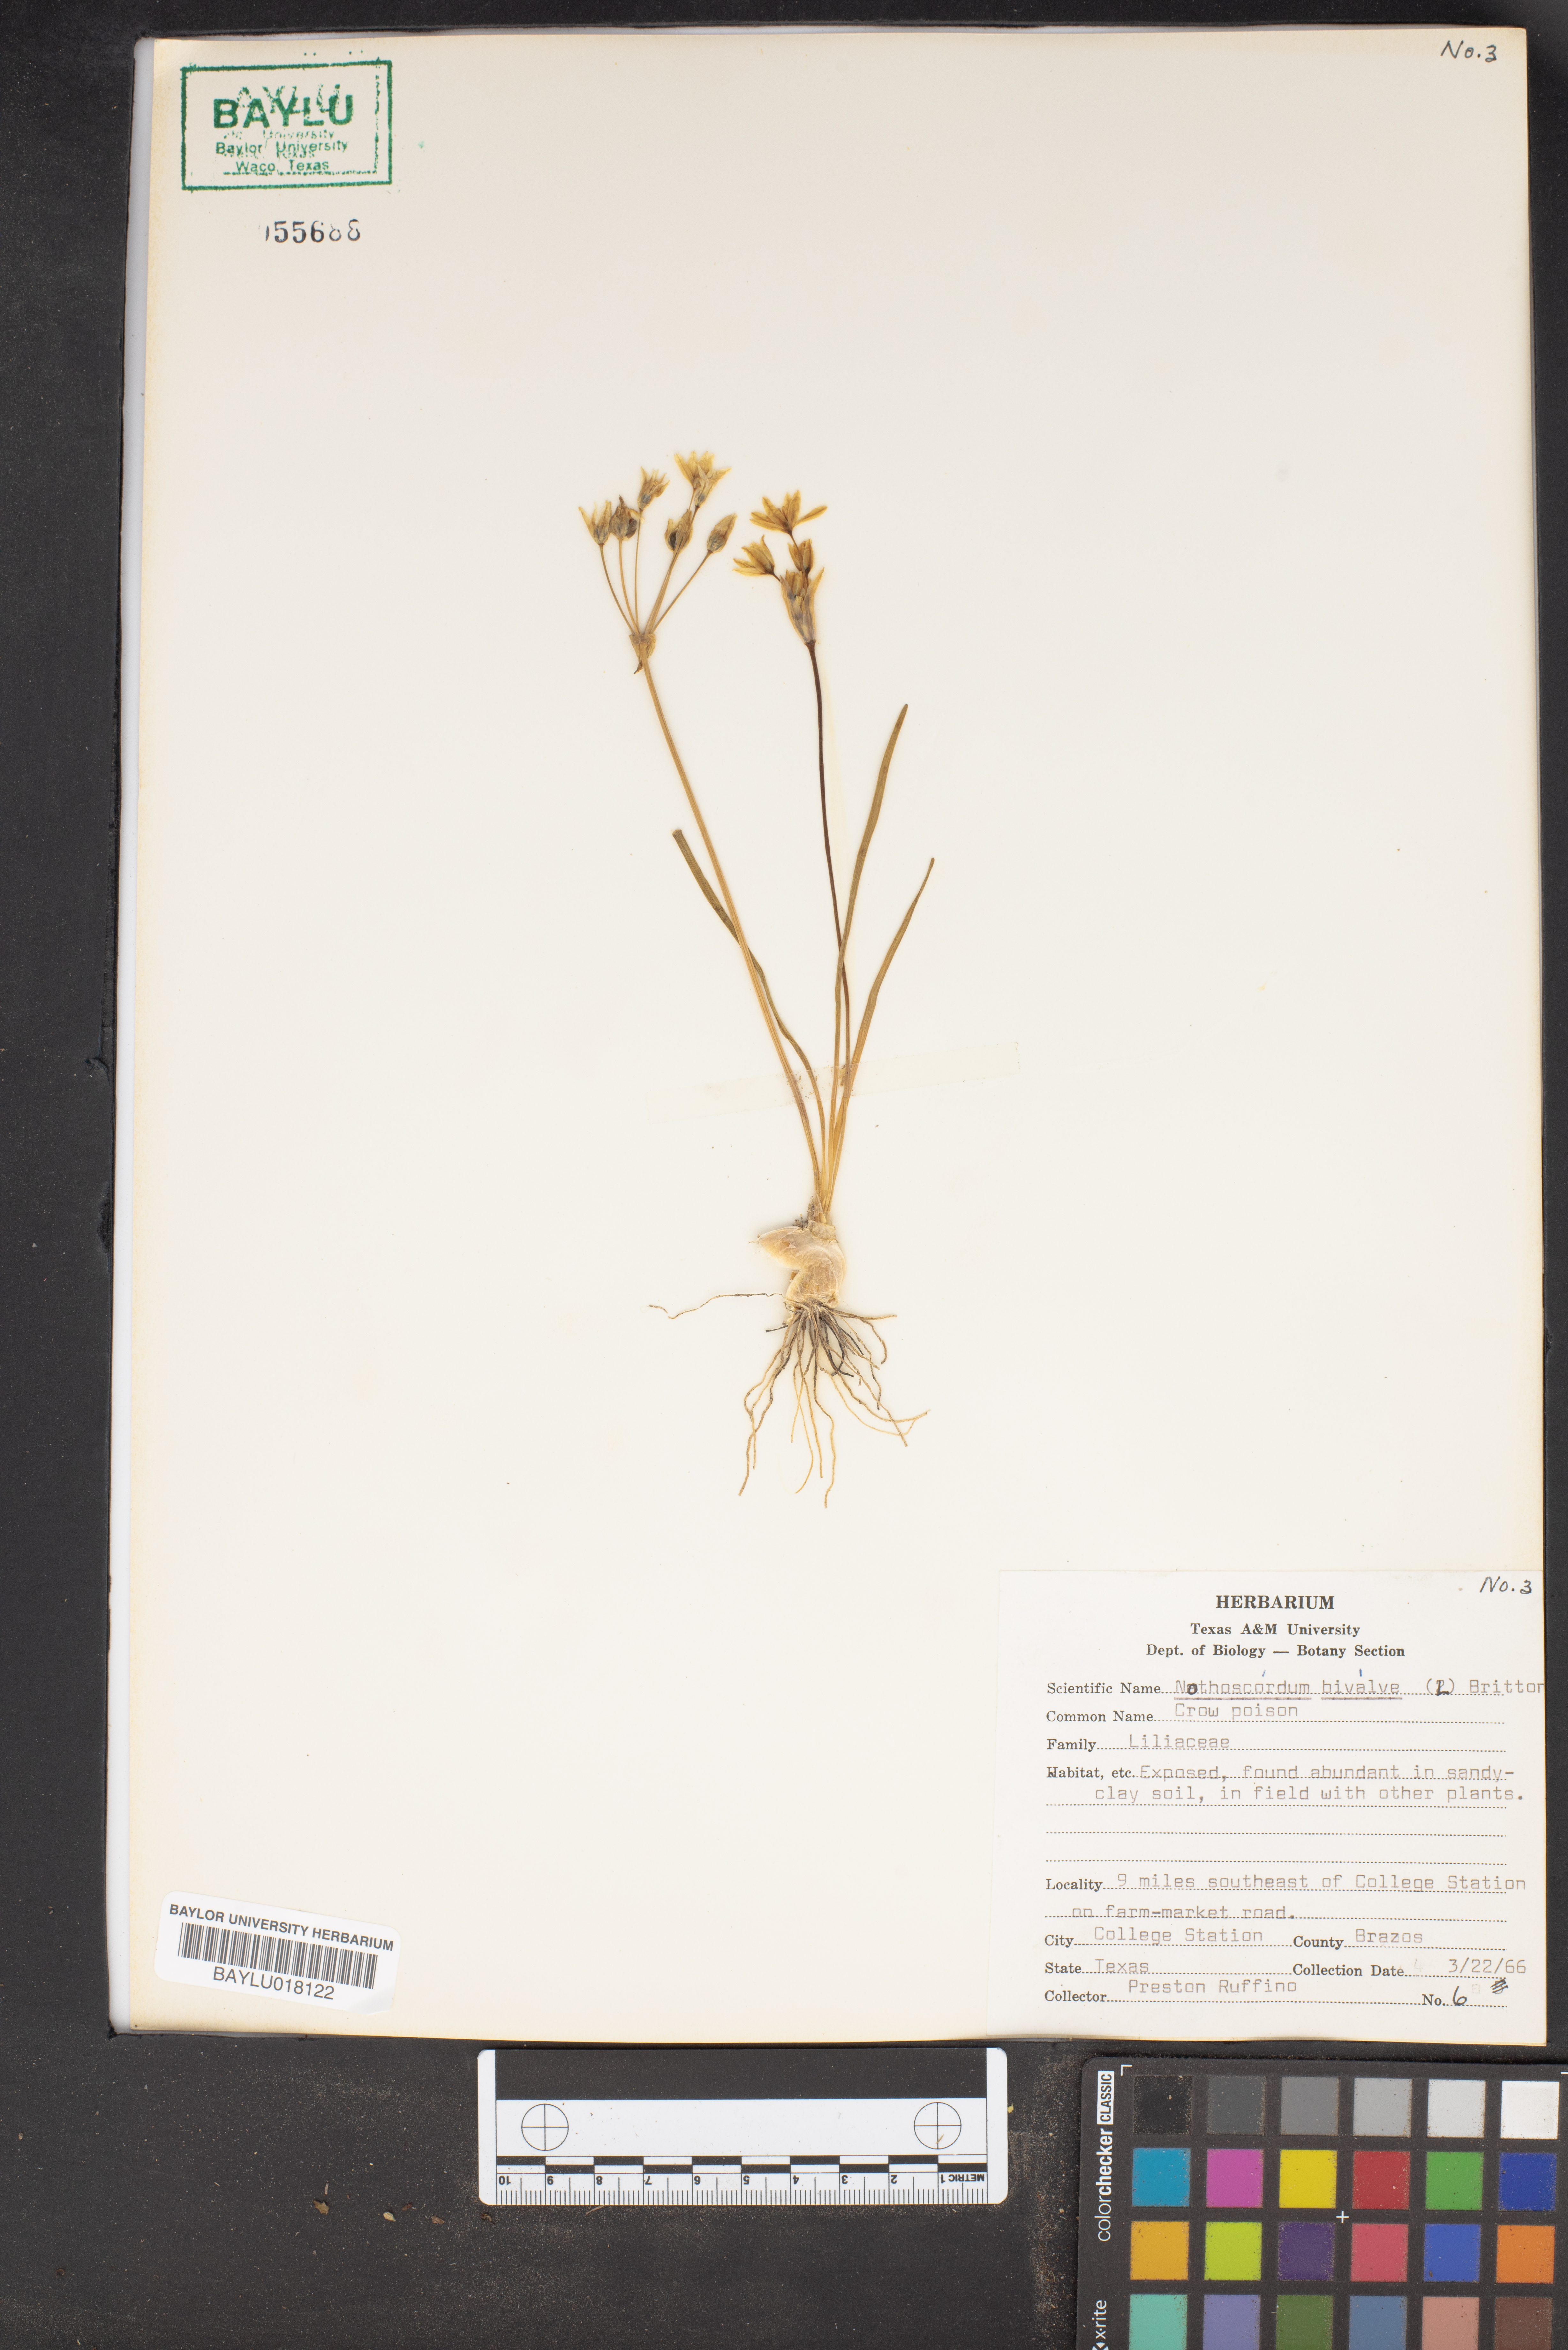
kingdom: Plantae
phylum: Tracheophyta
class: Liliopsida
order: Asparagales
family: Amaryllidaceae
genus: Nothoscordum
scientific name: Nothoscordum bivalve
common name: Crow-poison
